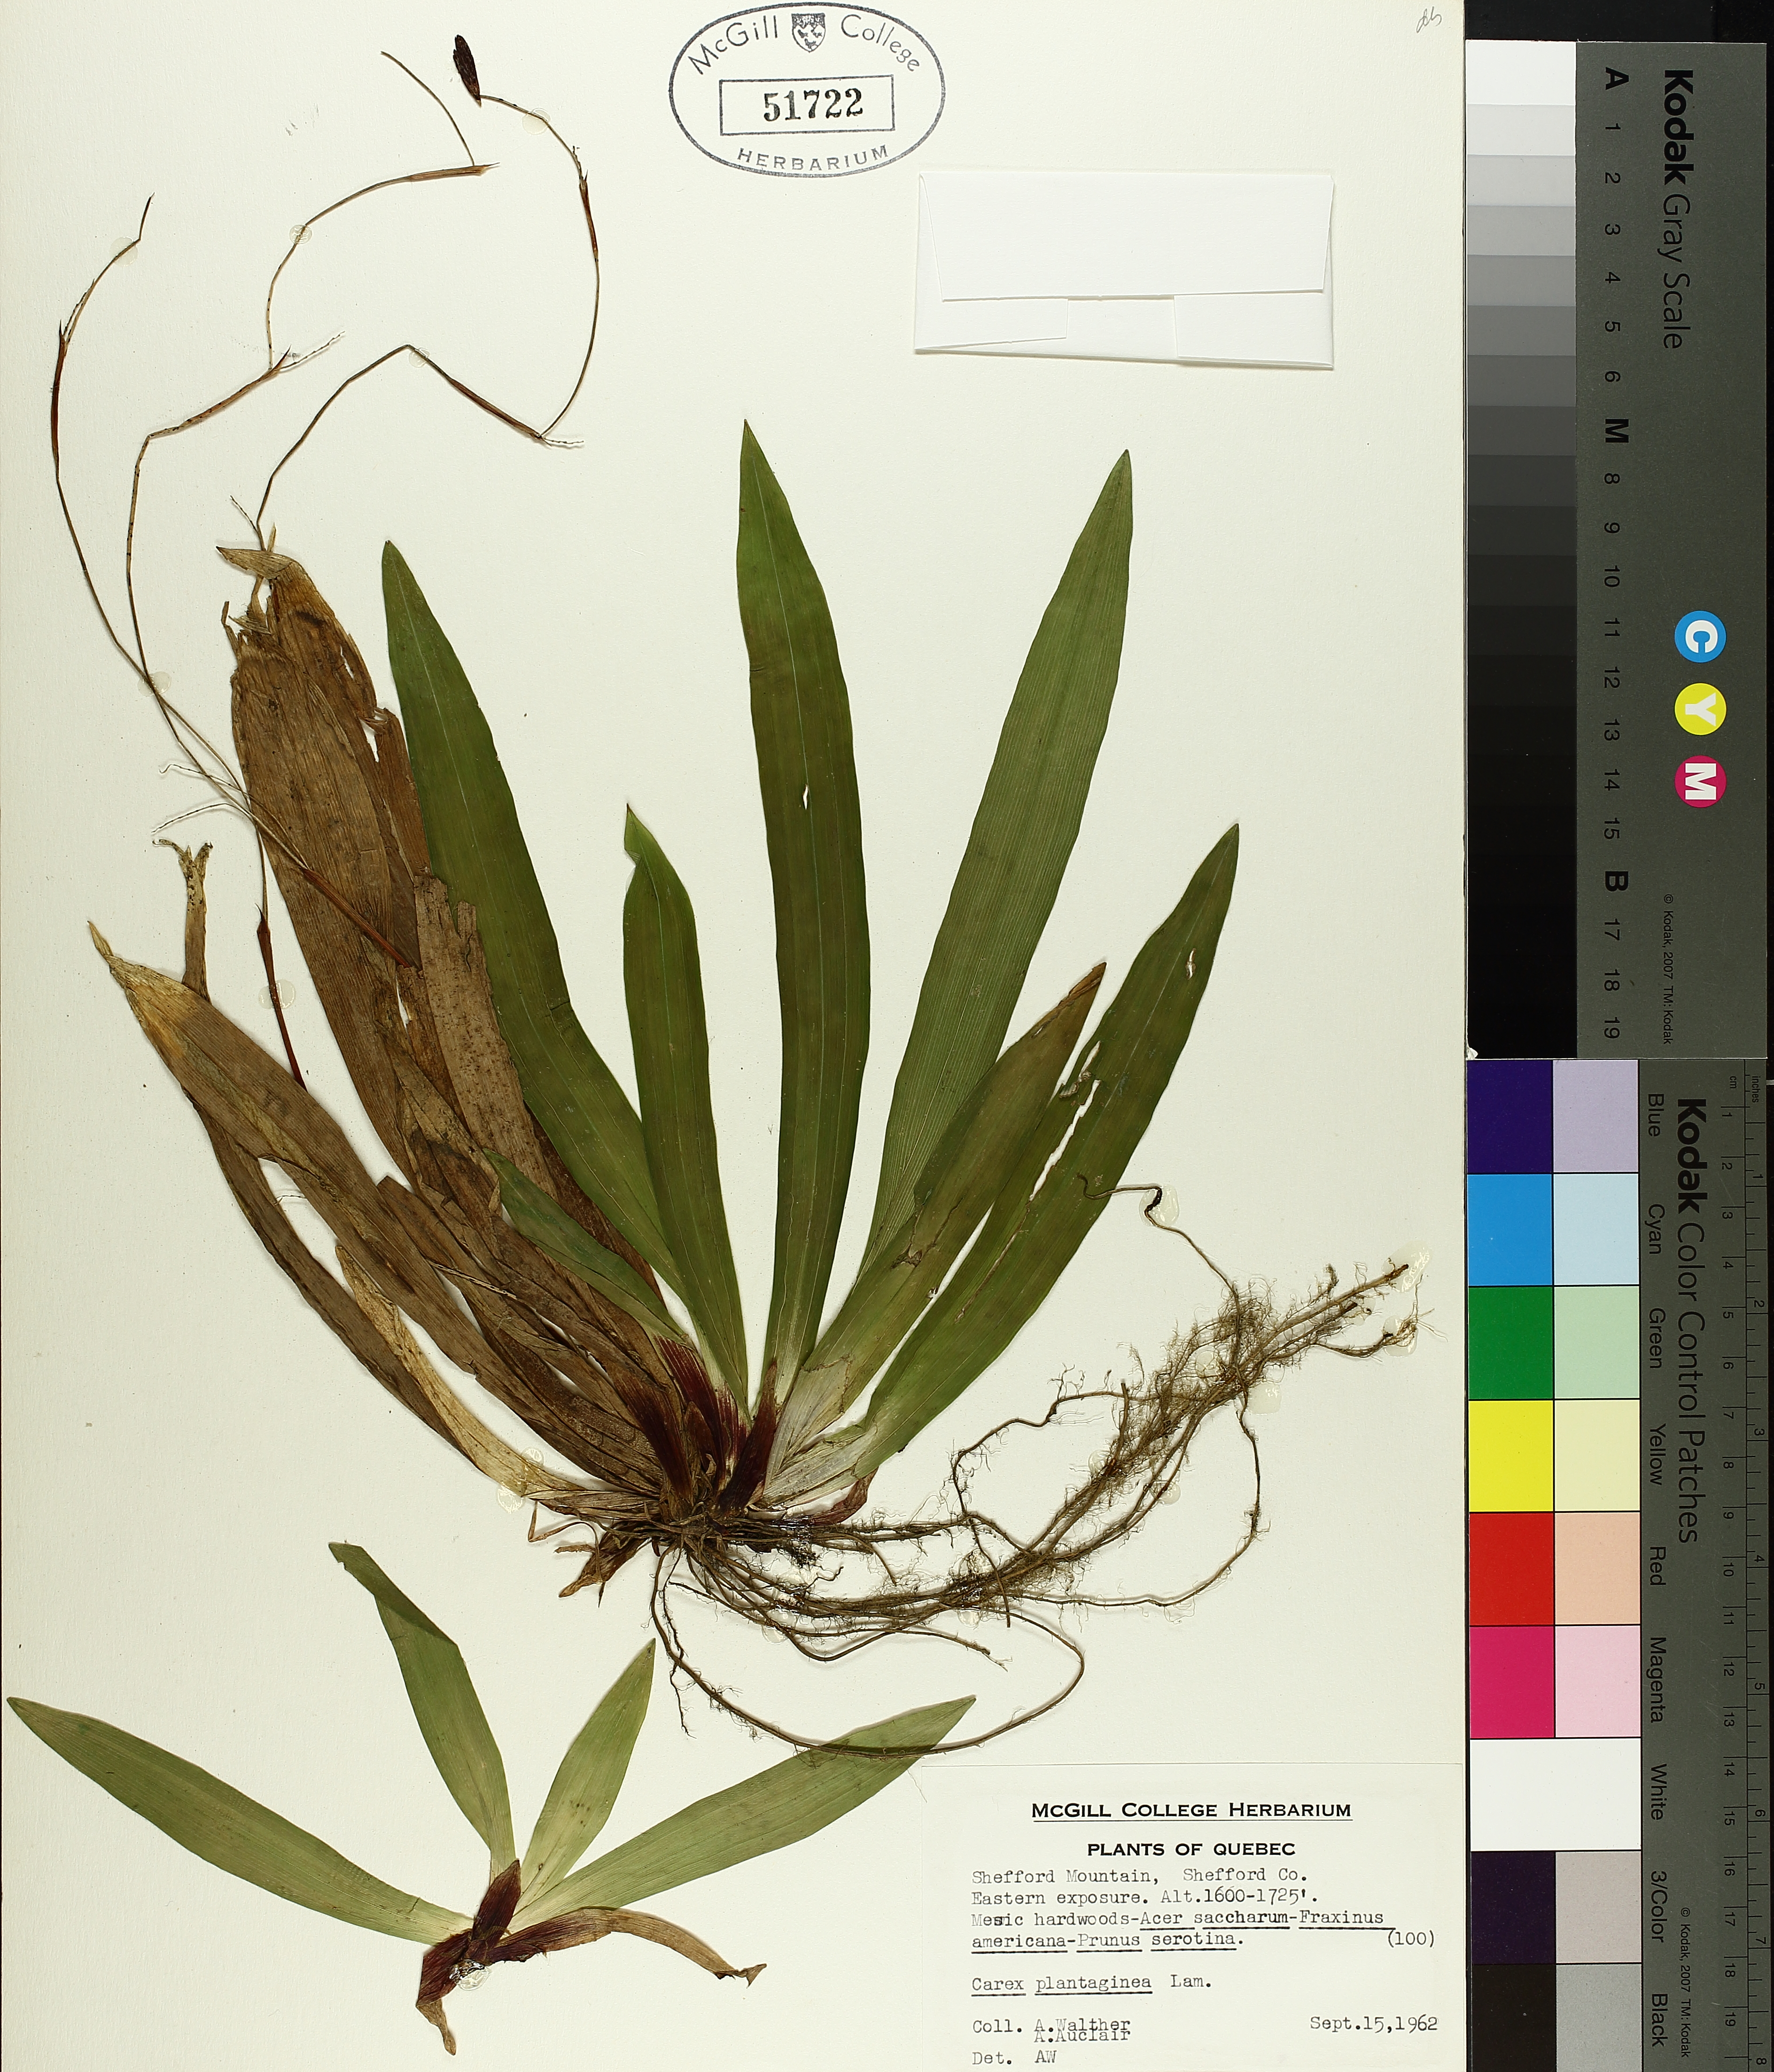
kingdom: Plantae
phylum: Tracheophyta
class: Liliopsida
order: Poales
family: Cyperaceae
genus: Carex
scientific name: Carex plantaginea
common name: Plantain-leaved sedge
